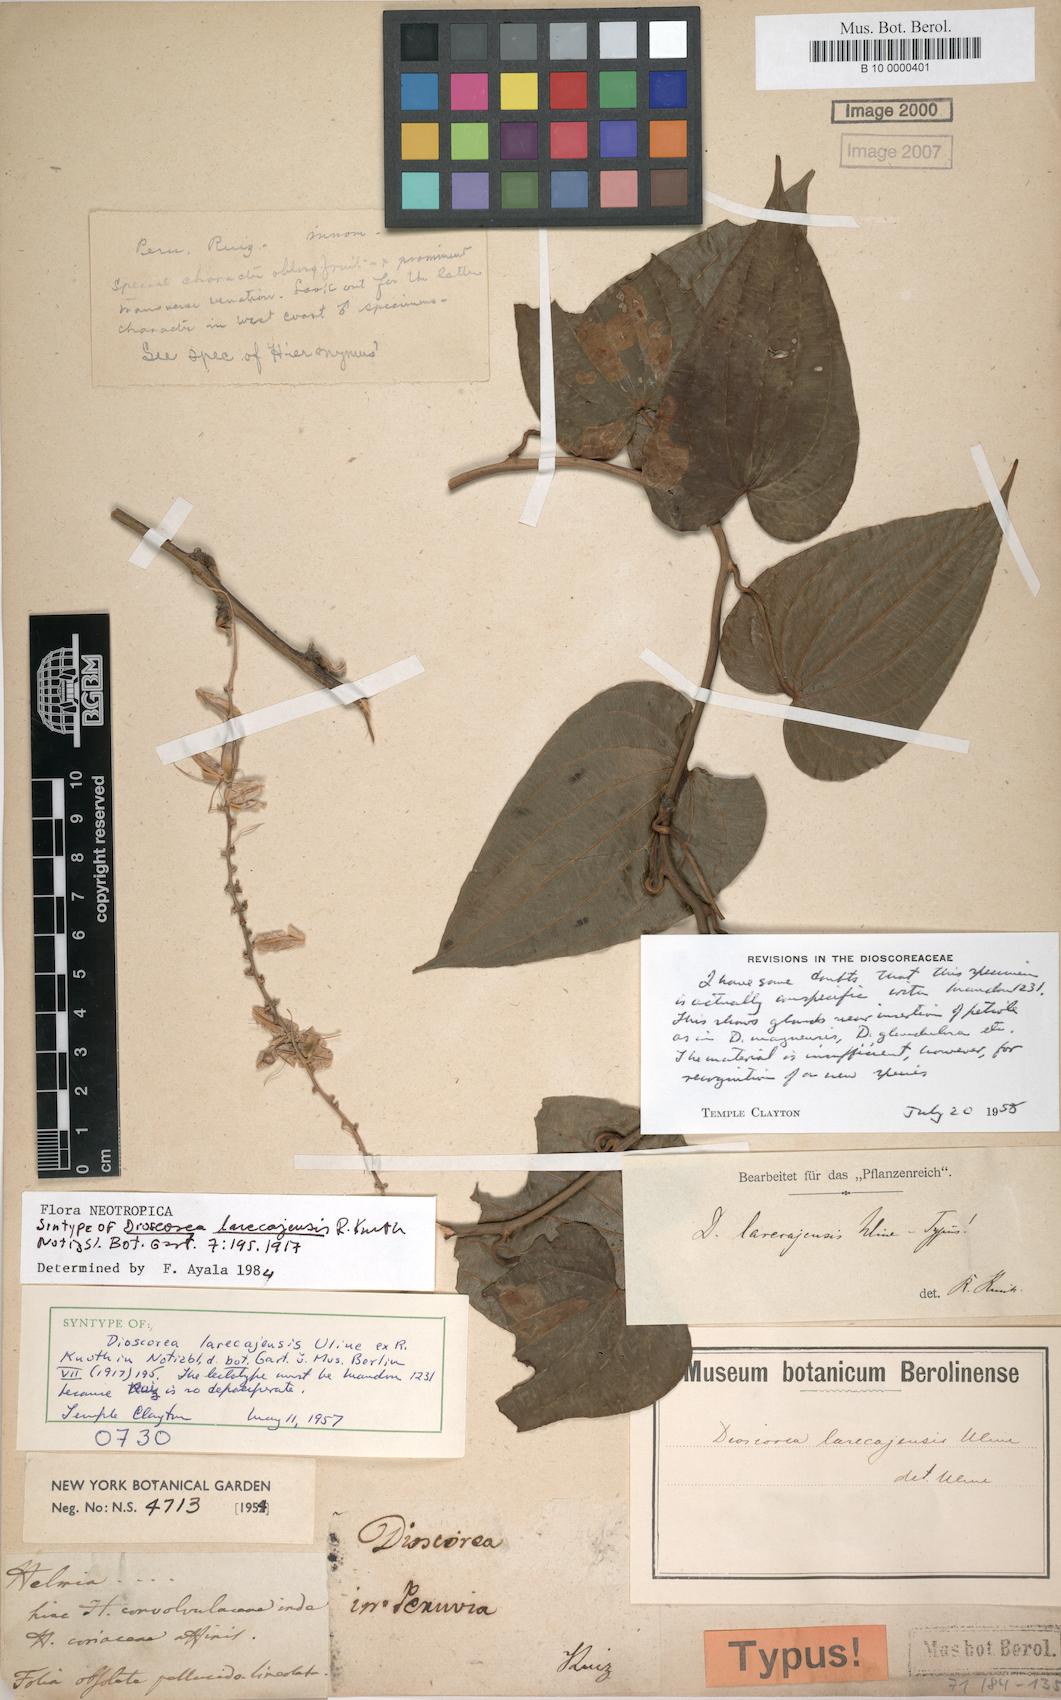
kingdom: Plantae
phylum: Tracheophyta
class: Liliopsida
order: Dioscoreales
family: Dioscoreaceae
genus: Dioscorea
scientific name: Dioscorea piperifolia
